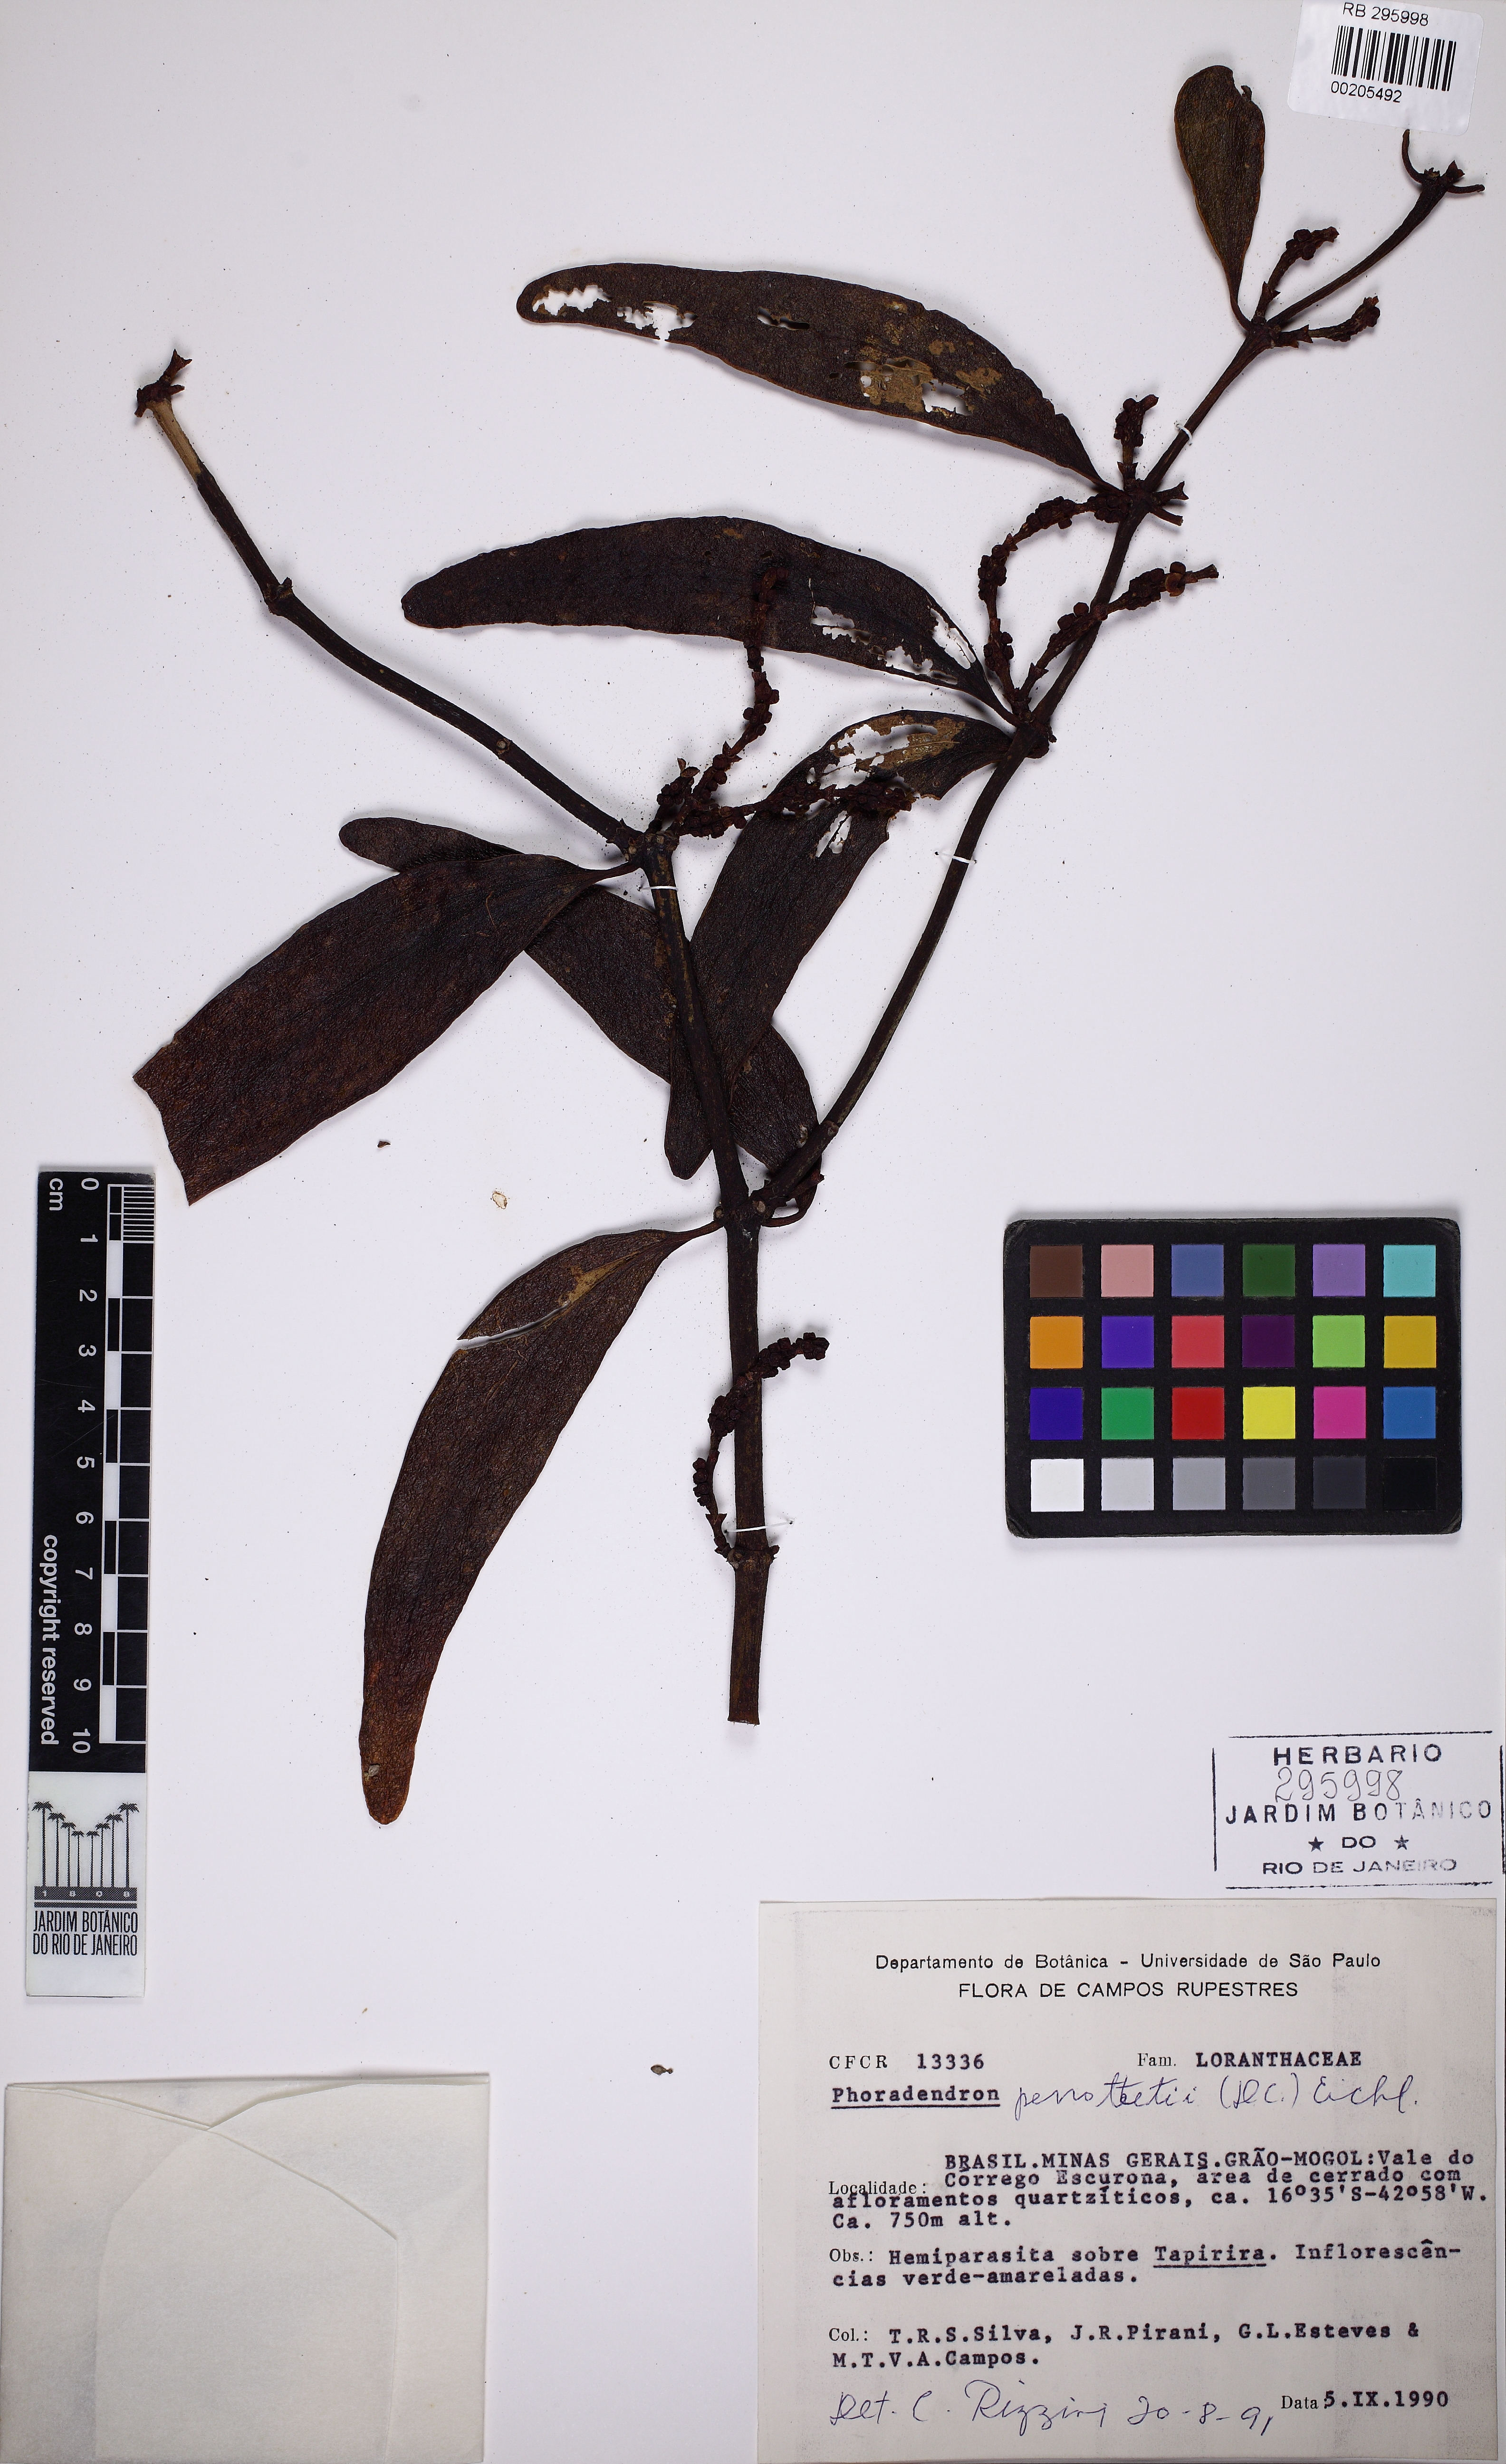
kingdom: Plantae
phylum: Tracheophyta
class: Magnoliopsida
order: Santalales
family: Viscaceae
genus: Phoradendron
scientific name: Phoradendron perrottetii
